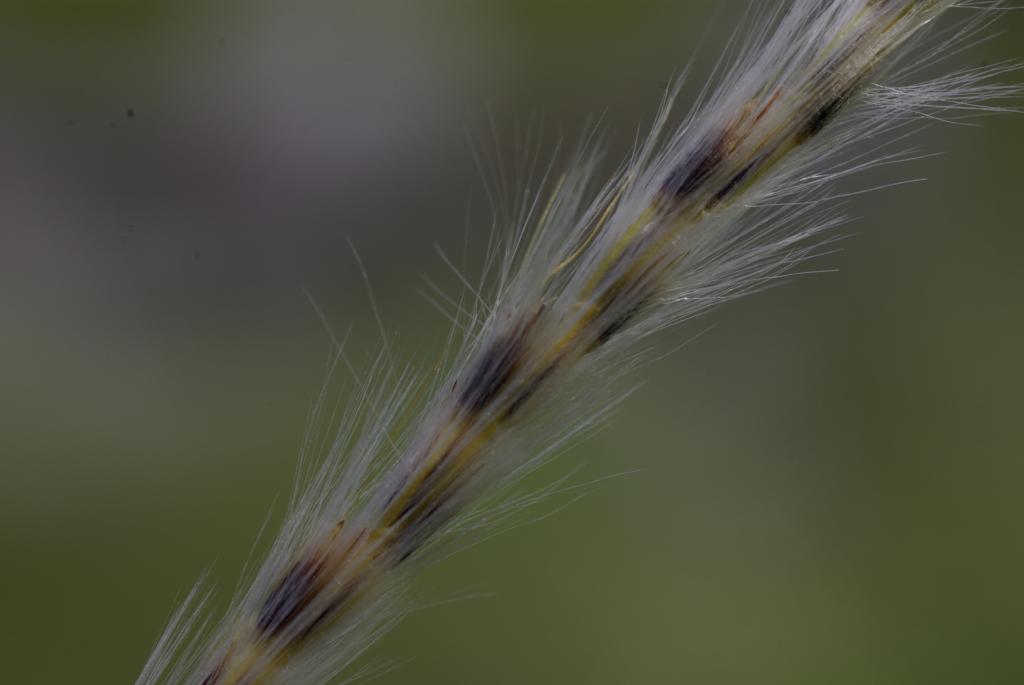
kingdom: Plantae
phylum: Tracheophyta
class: Liliopsida
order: Poales
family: Poaceae
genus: Saccharum
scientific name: Saccharum formosanum
